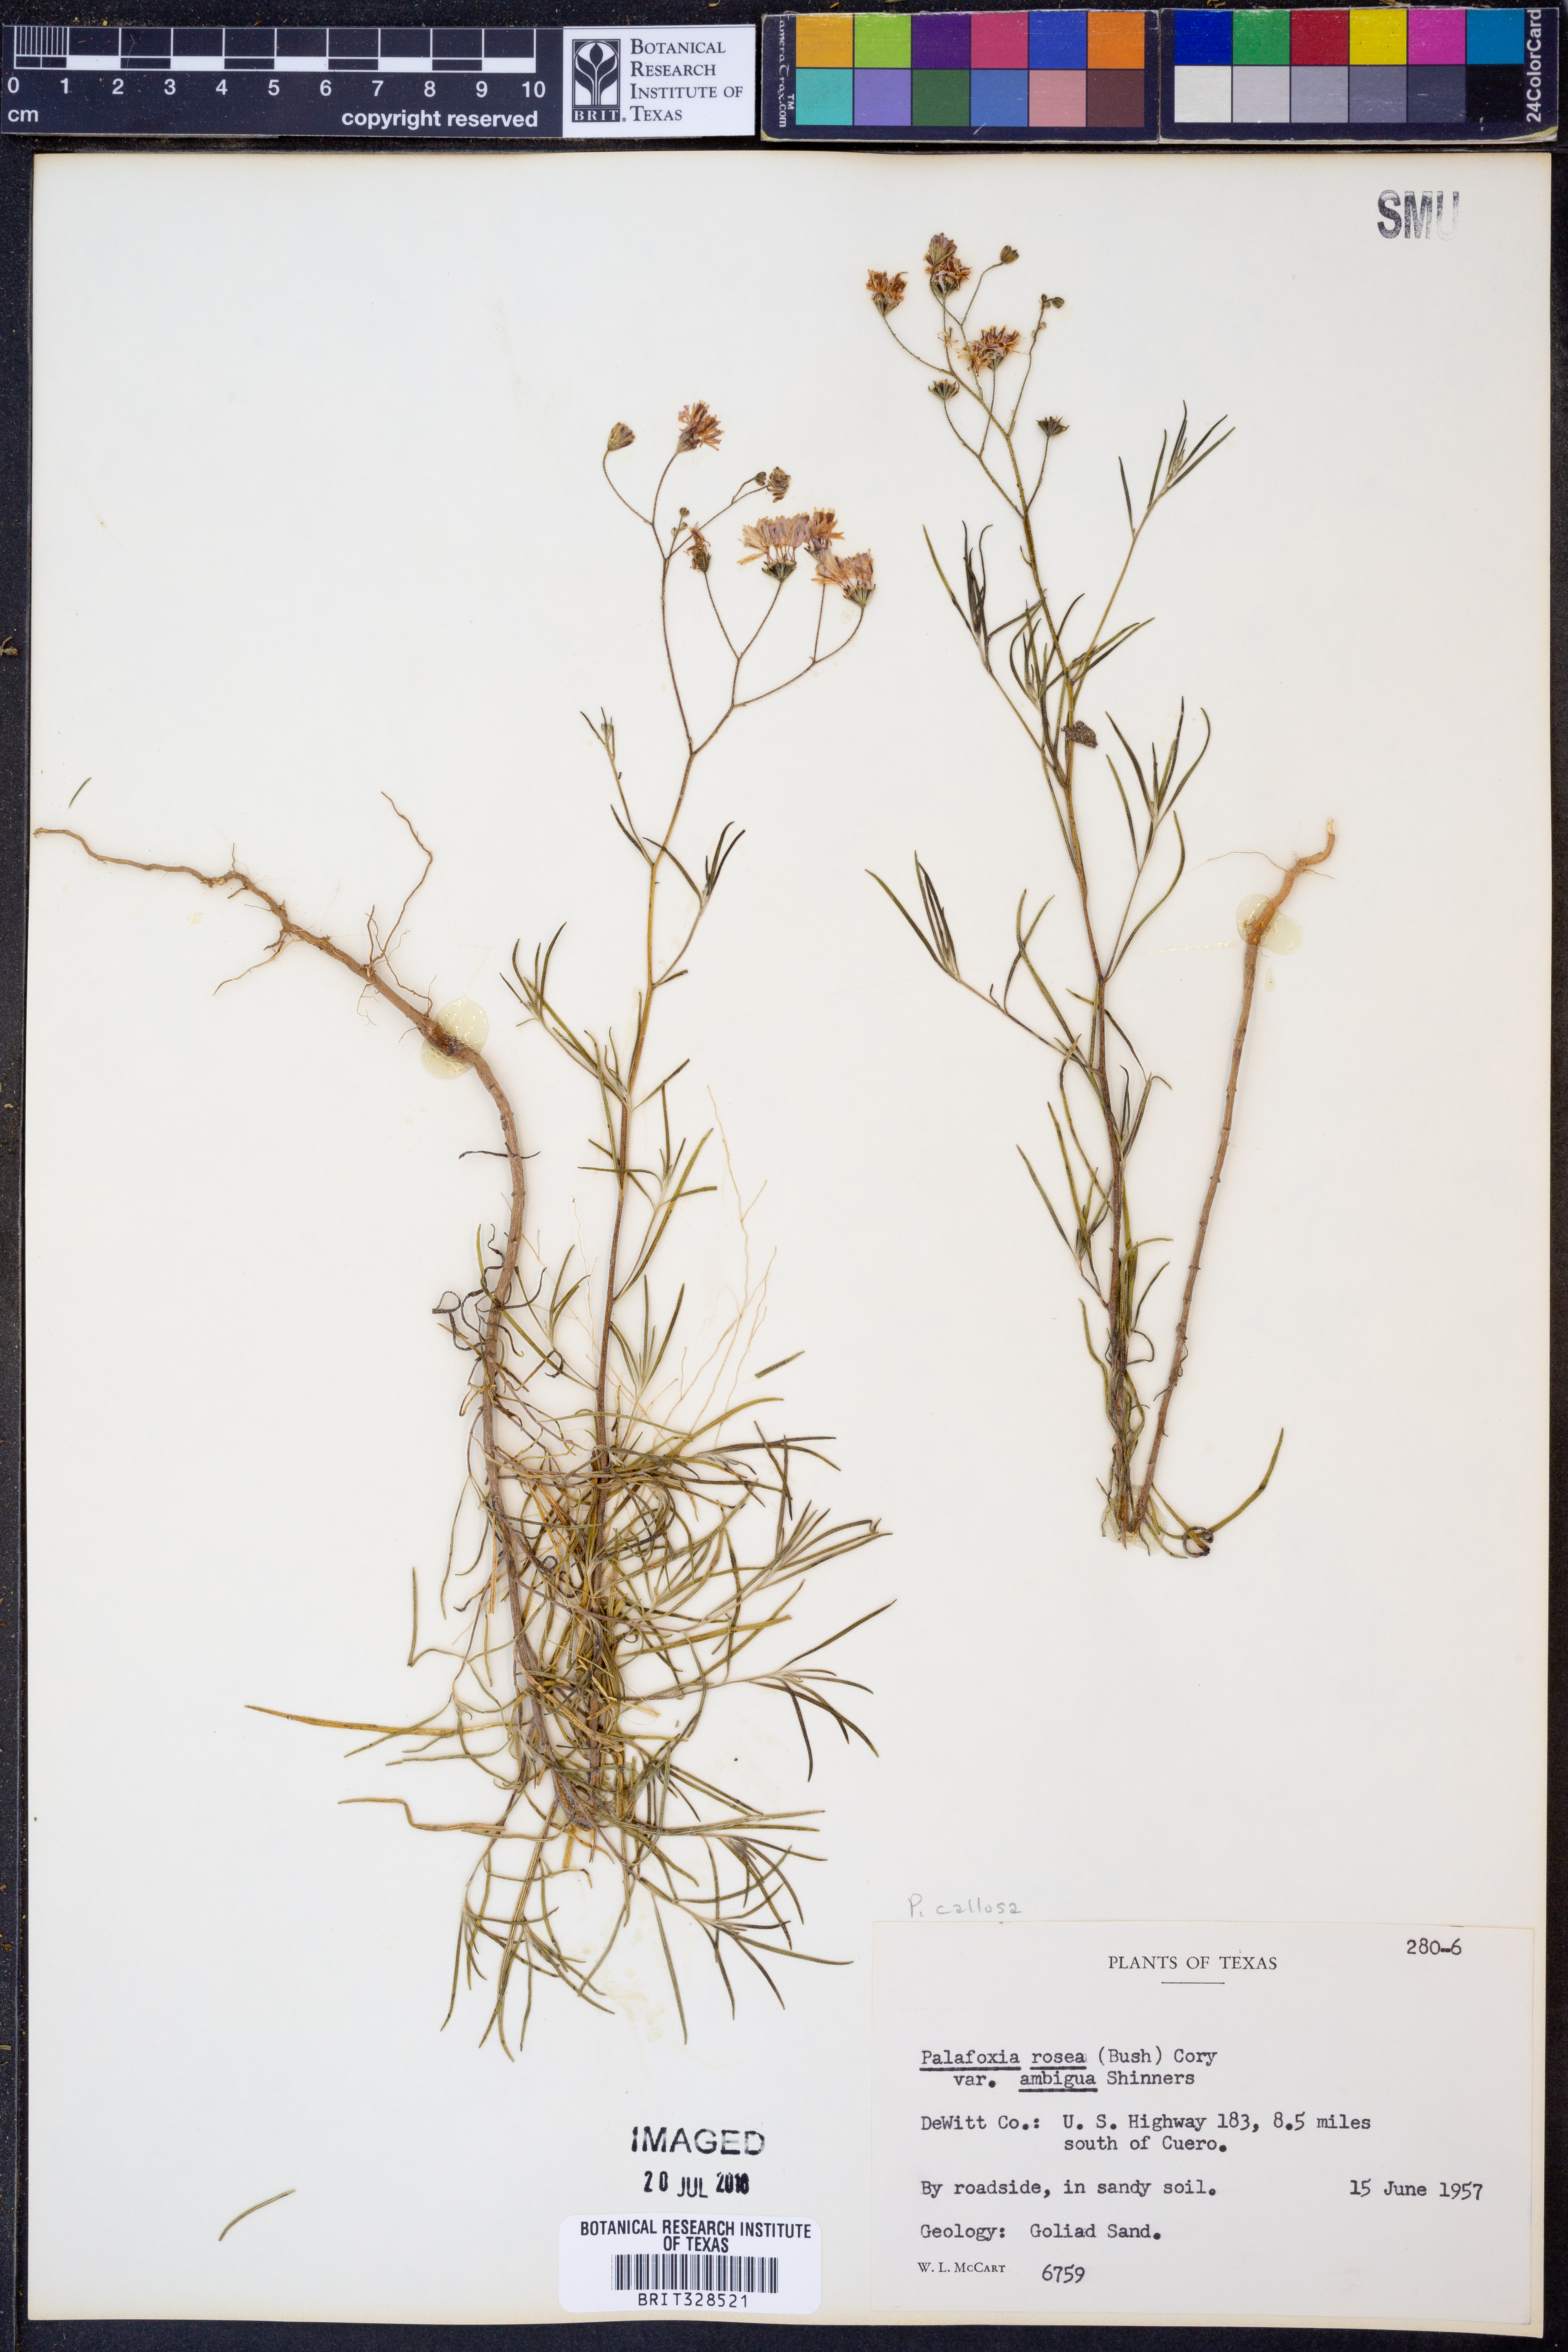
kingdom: Plantae
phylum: Tracheophyta
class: Magnoliopsida
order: Asterales
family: Asteraceae
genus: Palafoxia
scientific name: Palafoxia callosa
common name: Small palafox
